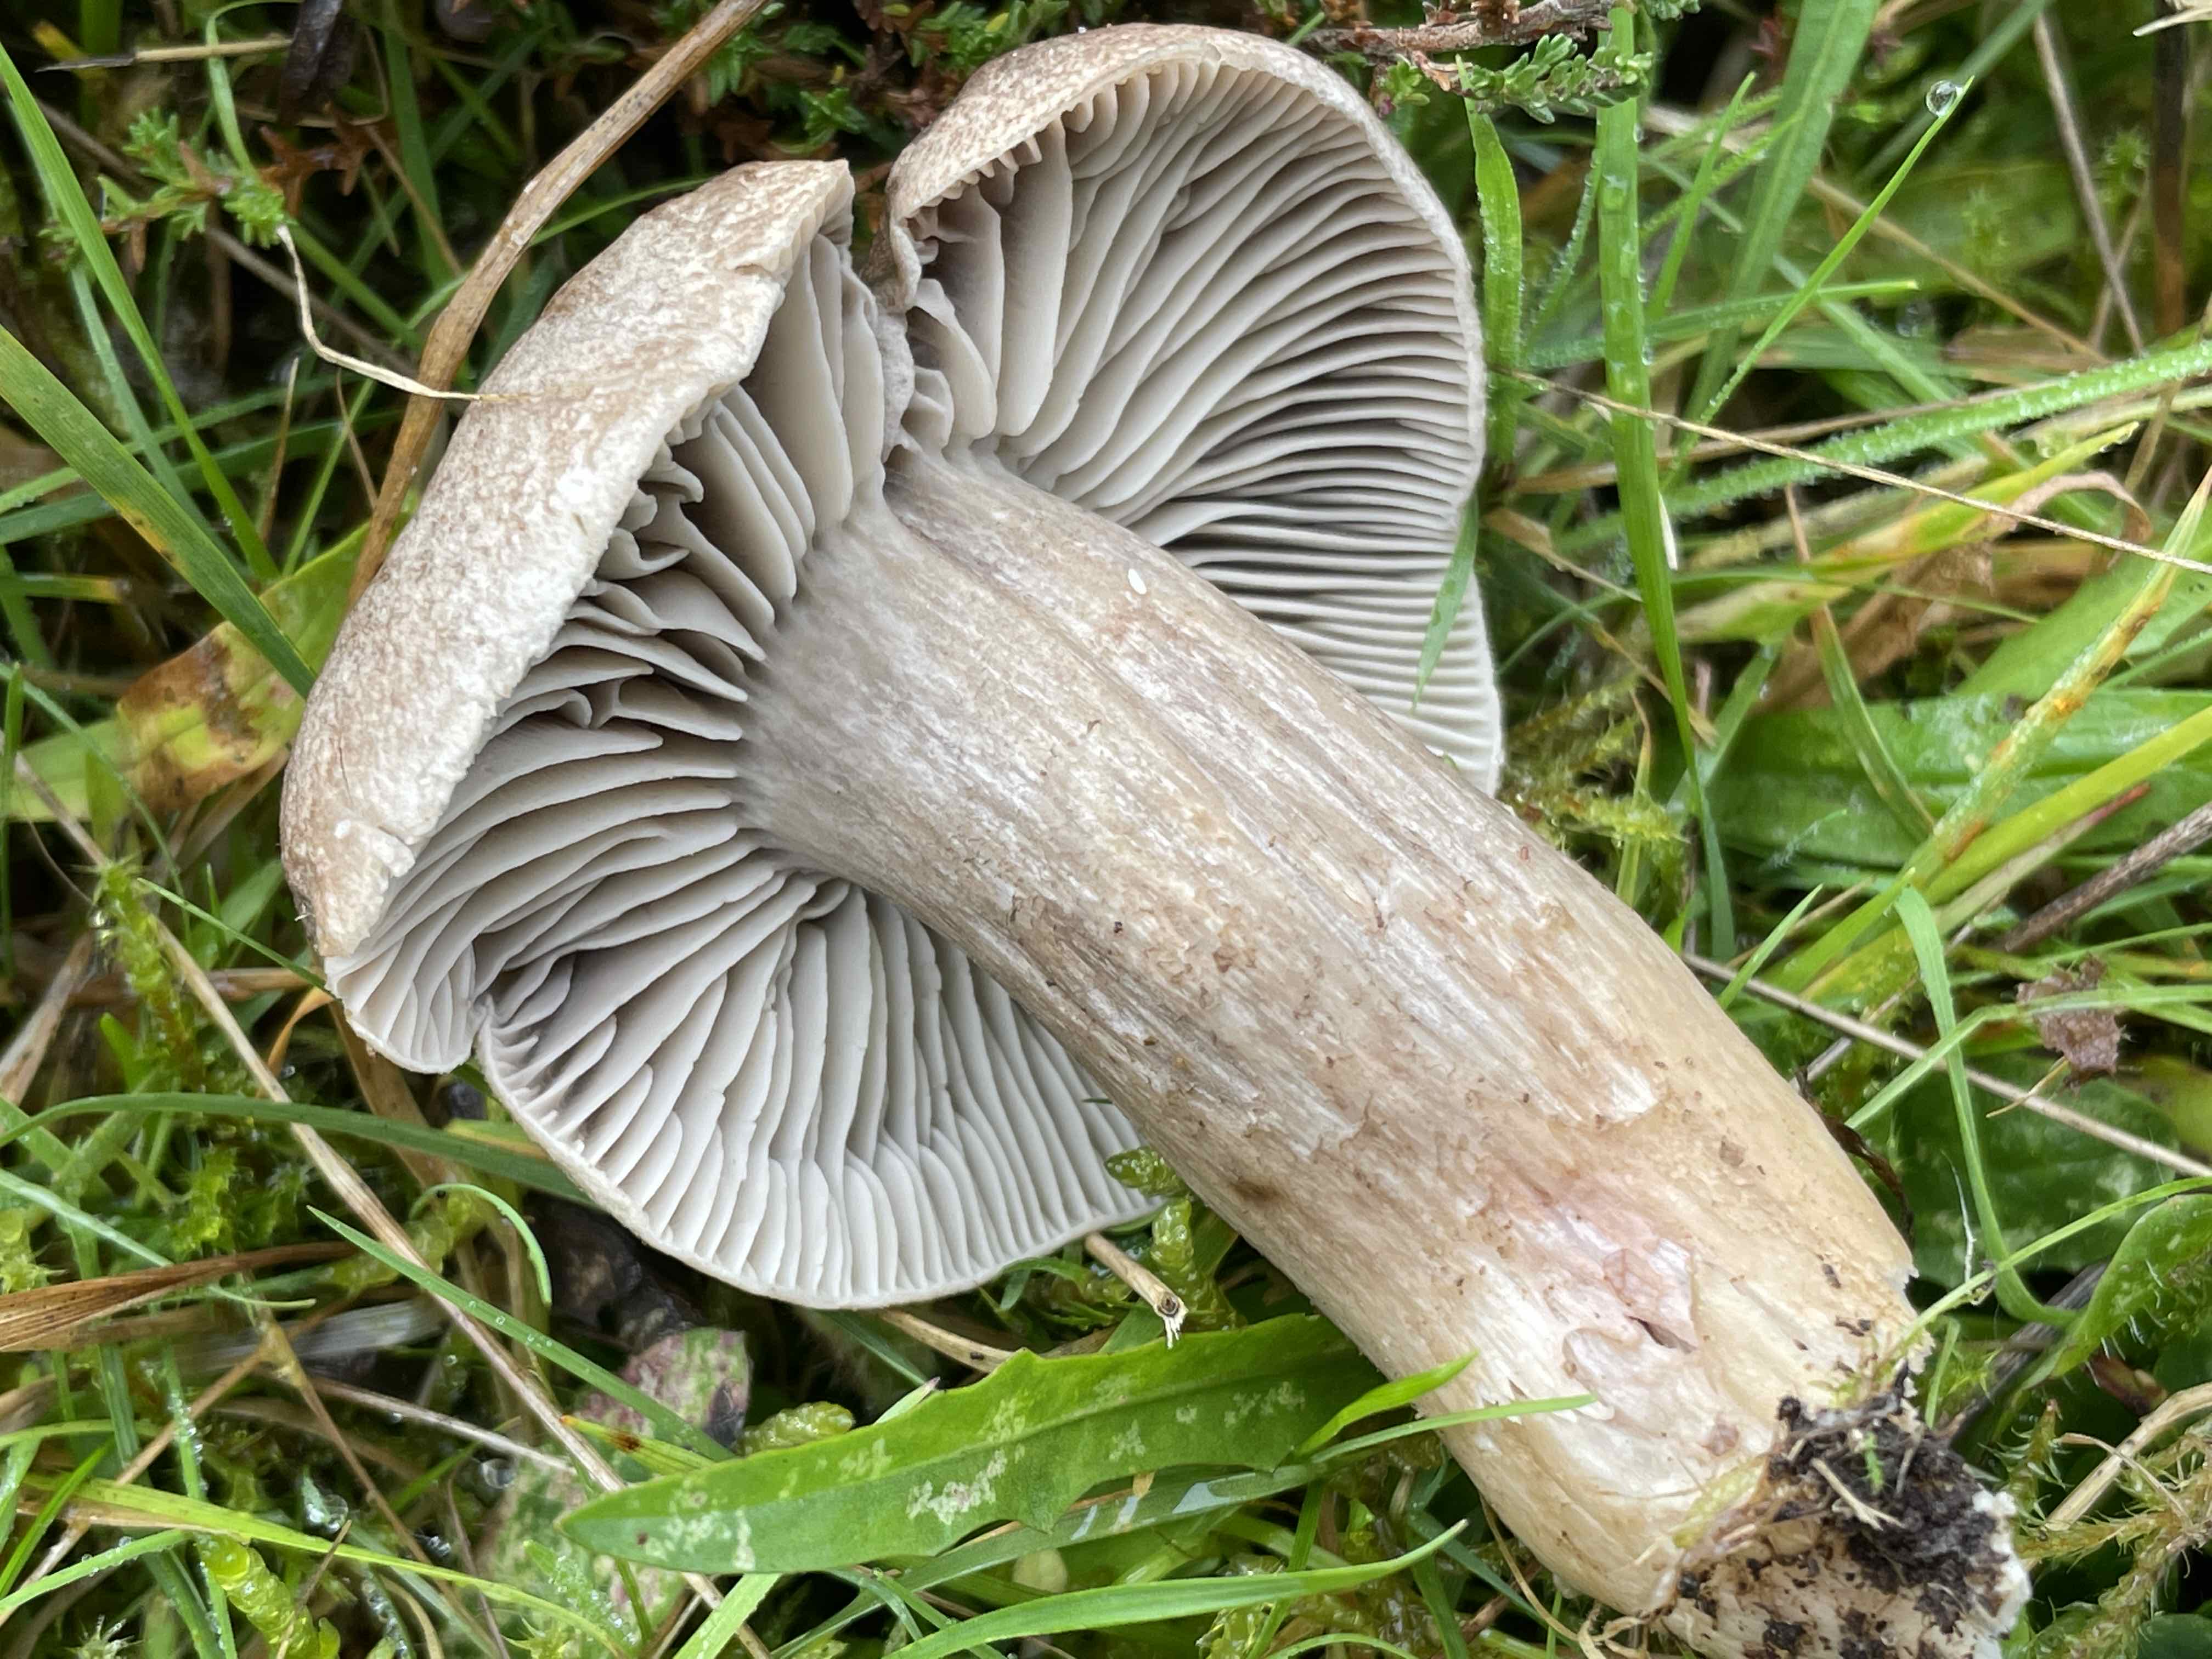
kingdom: Fungi
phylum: Basidiomycota
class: Agaricomycetes
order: Agaricales
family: Tricholomataceae
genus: Pseudotricholoma
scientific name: Pseudotricholoma metapodium
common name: rødmende alfehat
